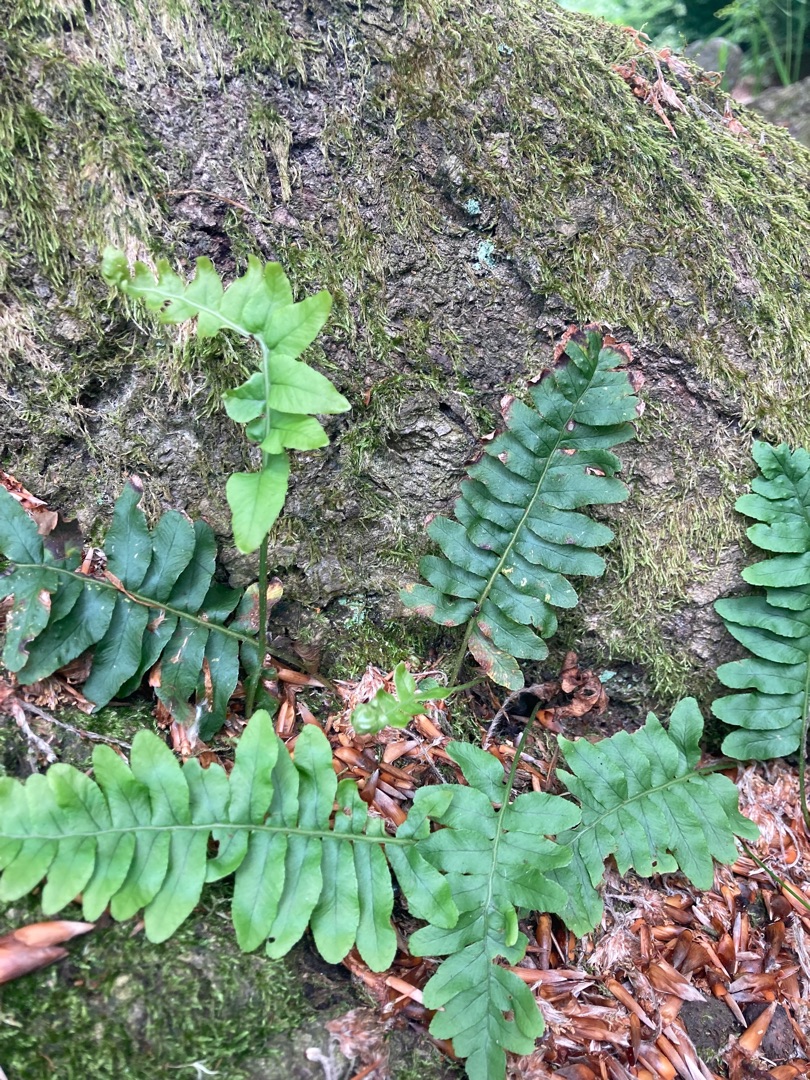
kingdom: Plantae
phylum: Tracheophyta
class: Polypodiopsida
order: Polypodiales
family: Polypodiaceae
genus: Polypodium
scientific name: Polypodium vulgare
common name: Almindelig engelsød
